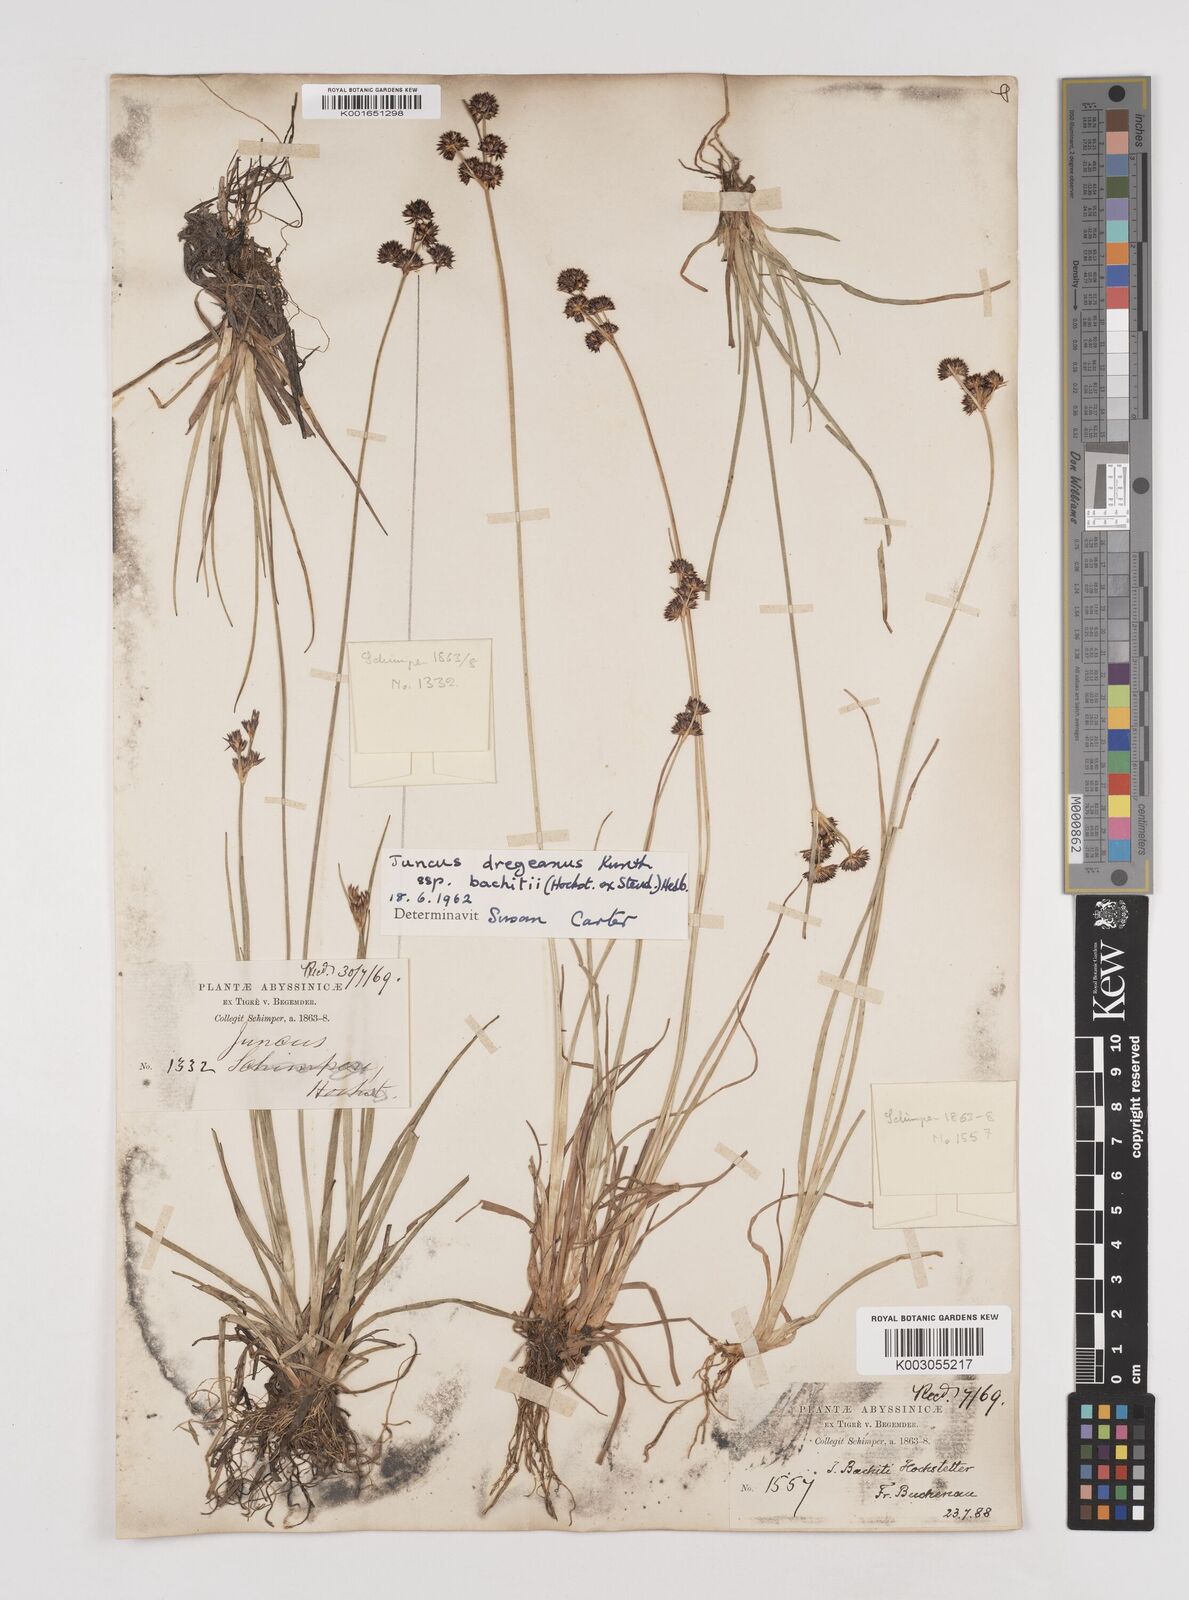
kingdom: Plantae
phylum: Tracheophyta
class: Liliopsida
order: Poales
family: Juncaceae
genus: Juncus
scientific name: Juncus dregeanus
